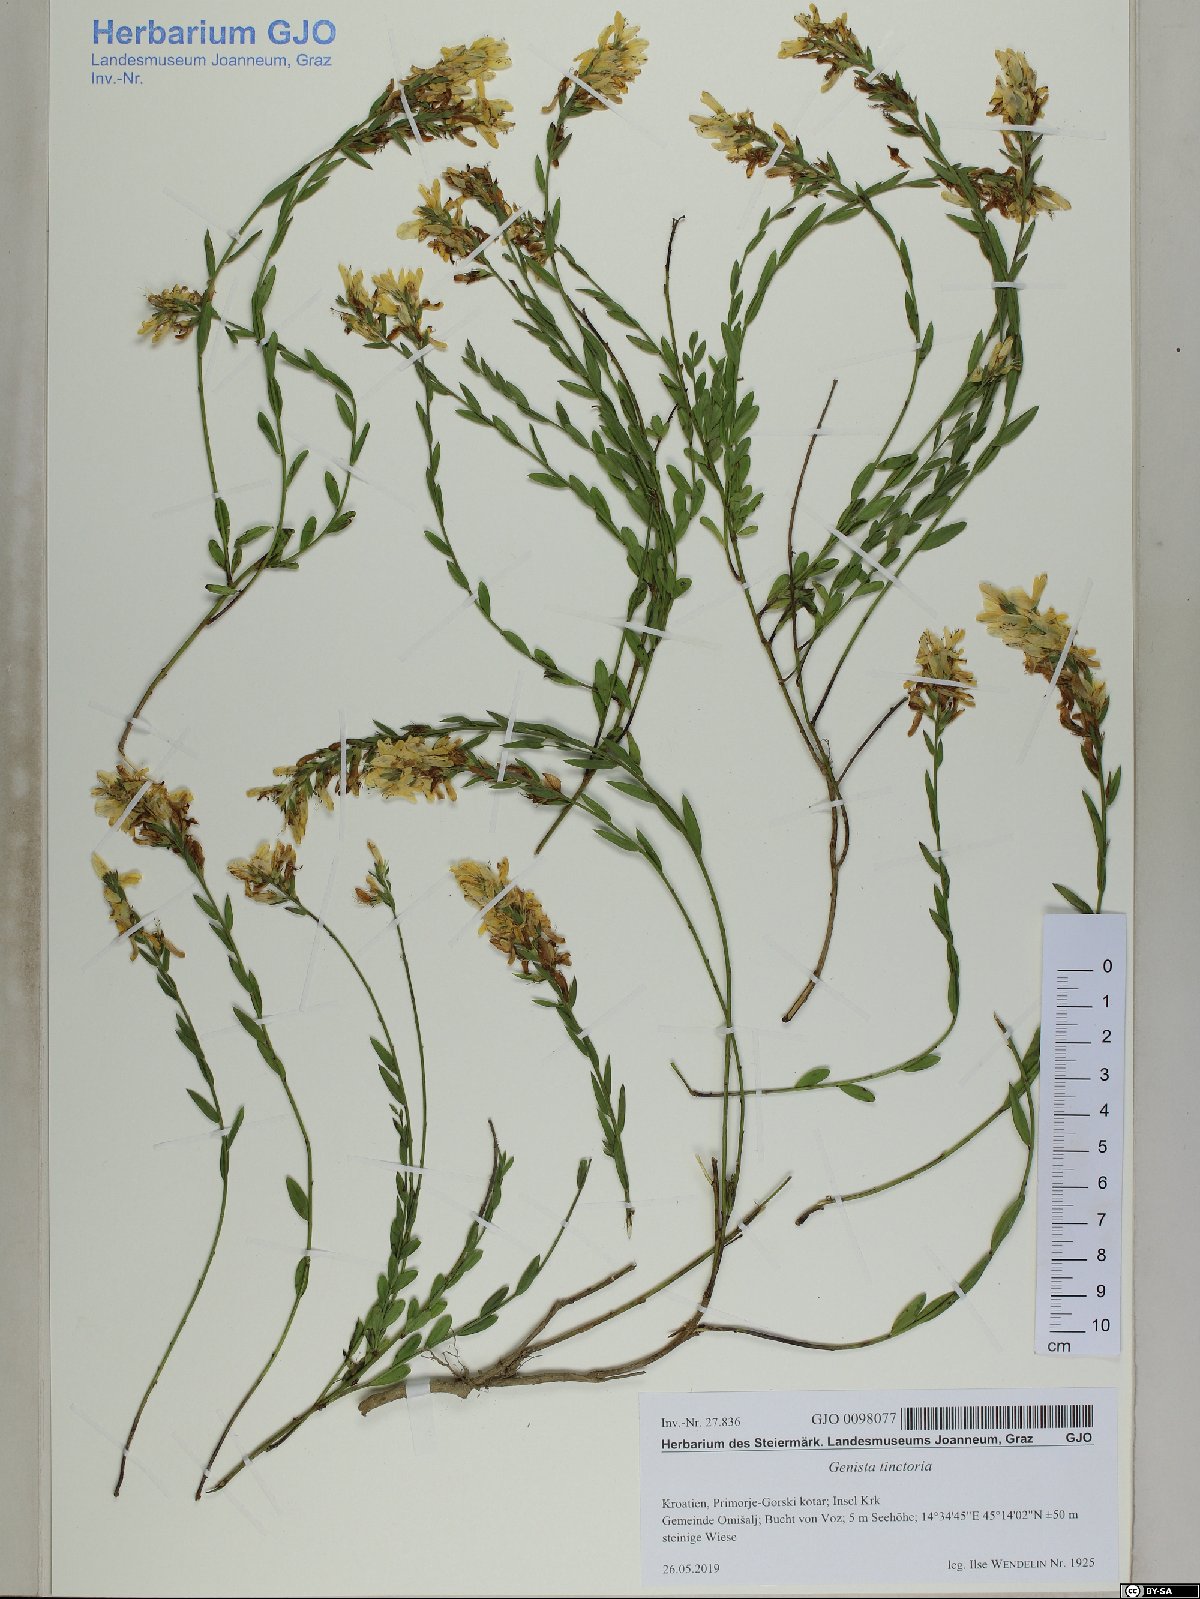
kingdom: Plantae
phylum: Tracheophyta
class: Magnoliopsida
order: Fabales
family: Fabaceae
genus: Genista
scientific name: Genista tinctoria
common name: Dyer's greenweed
